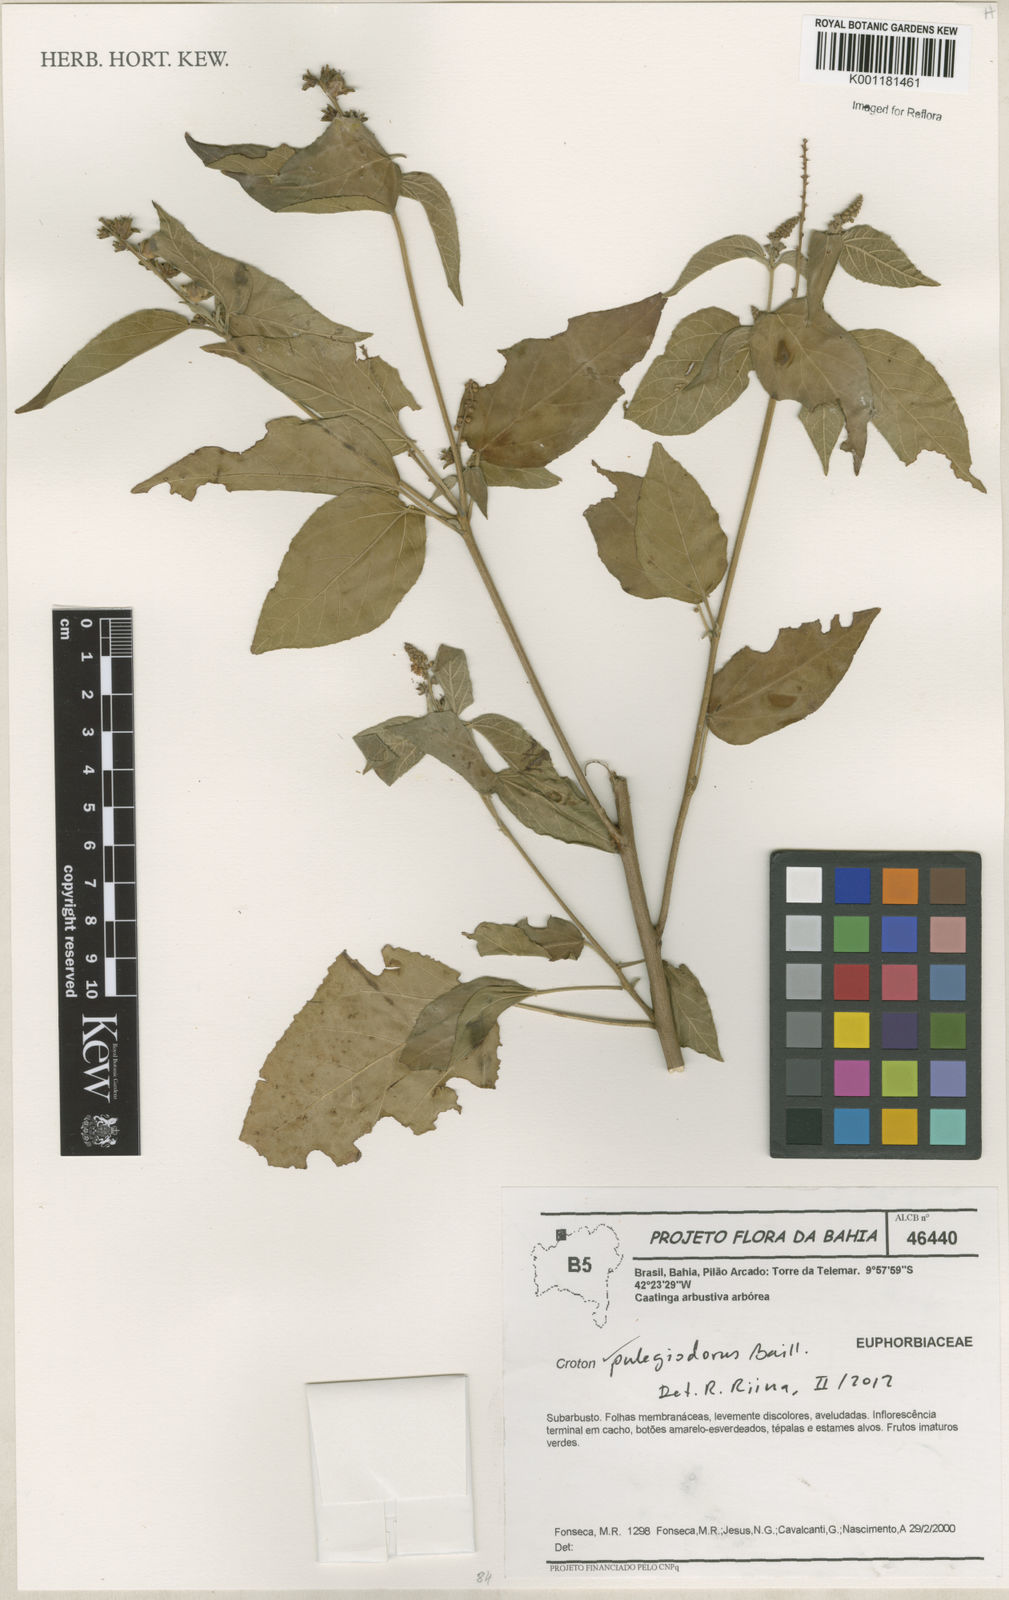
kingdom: Plantae
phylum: Tracheophyta
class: Magnoliopsida
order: Malpighiales
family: Euphorbiaceae
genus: Croton
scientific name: Croton pulegiodorus
